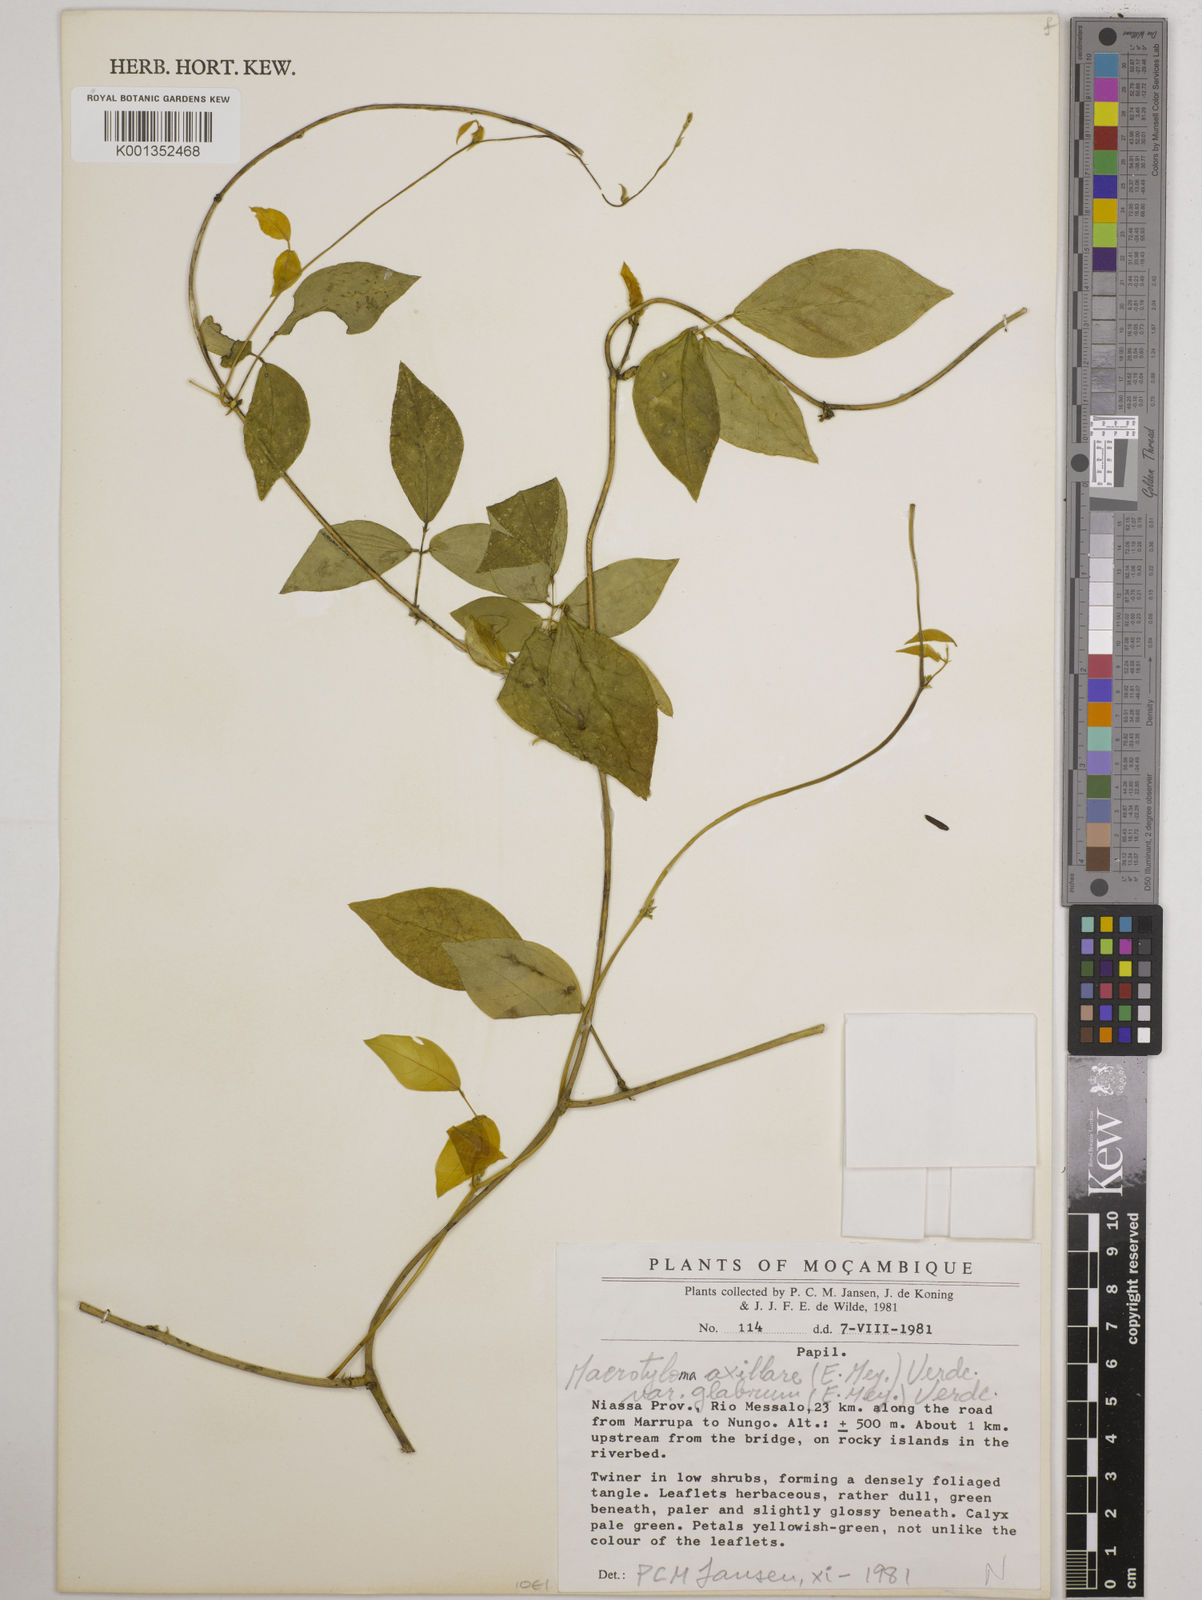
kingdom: Plantae
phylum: Tracheophyta
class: Magnoliopsida
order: Fabales
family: Fabaceae
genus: Macrotyloma
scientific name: Macrotyloma
